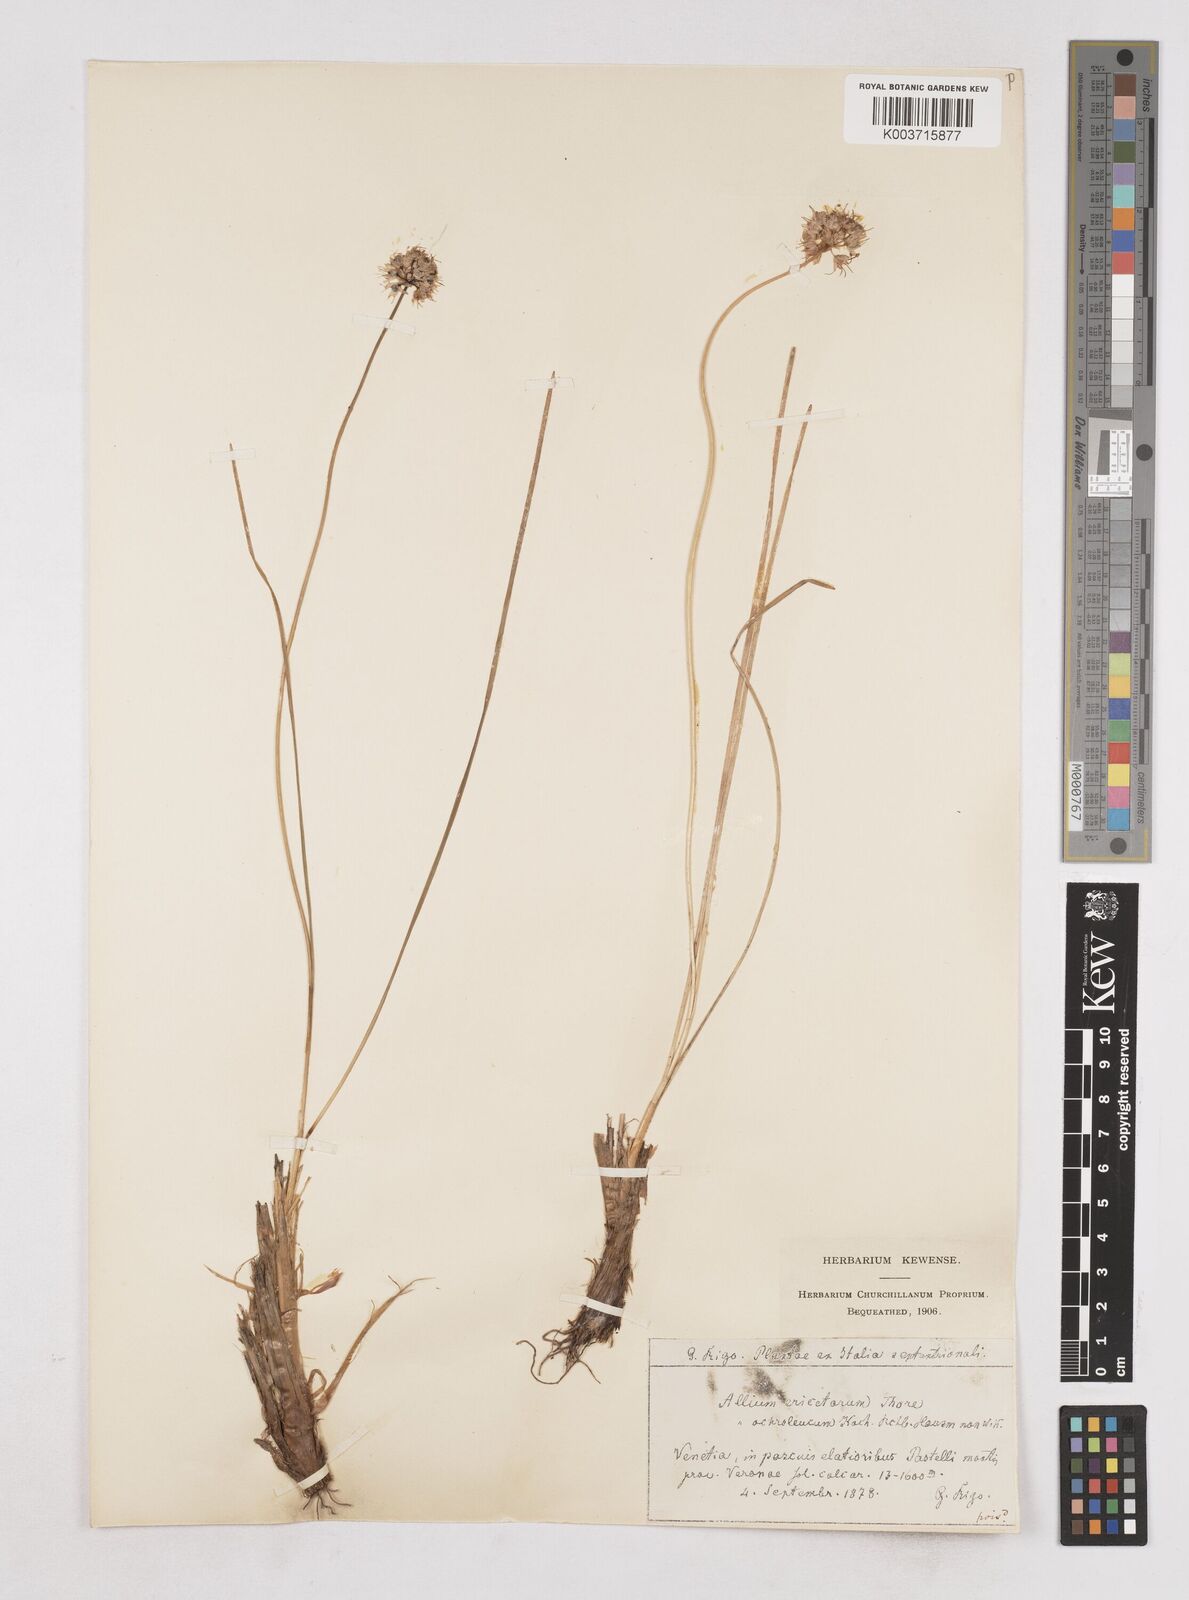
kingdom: Plantae
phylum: Tracheophyta
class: Liliopsida
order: Asparagales
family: Amaryllidaceae
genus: Allium
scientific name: Allium ericetorum
